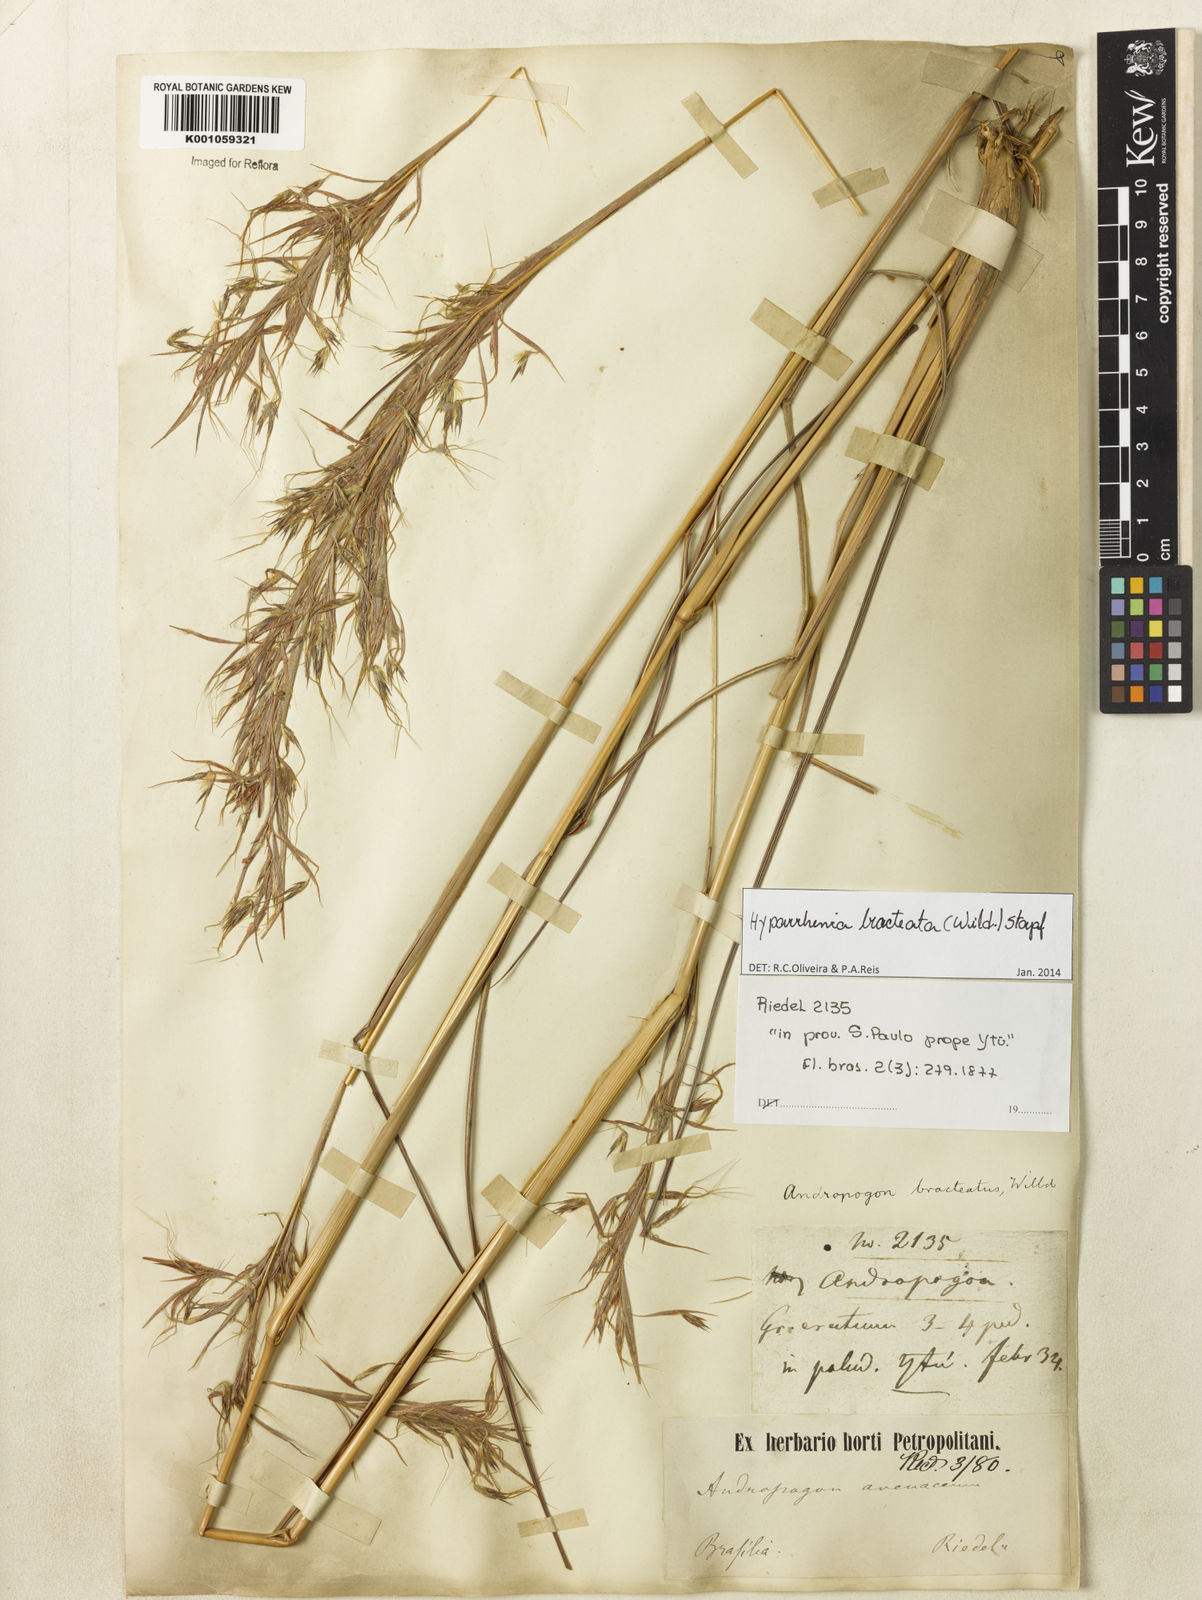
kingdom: Plantae
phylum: Tracheophyta
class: Liliopsida
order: Poales
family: Poaceae
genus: Hyparrhenia
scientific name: Hyparrhenia bracteata
